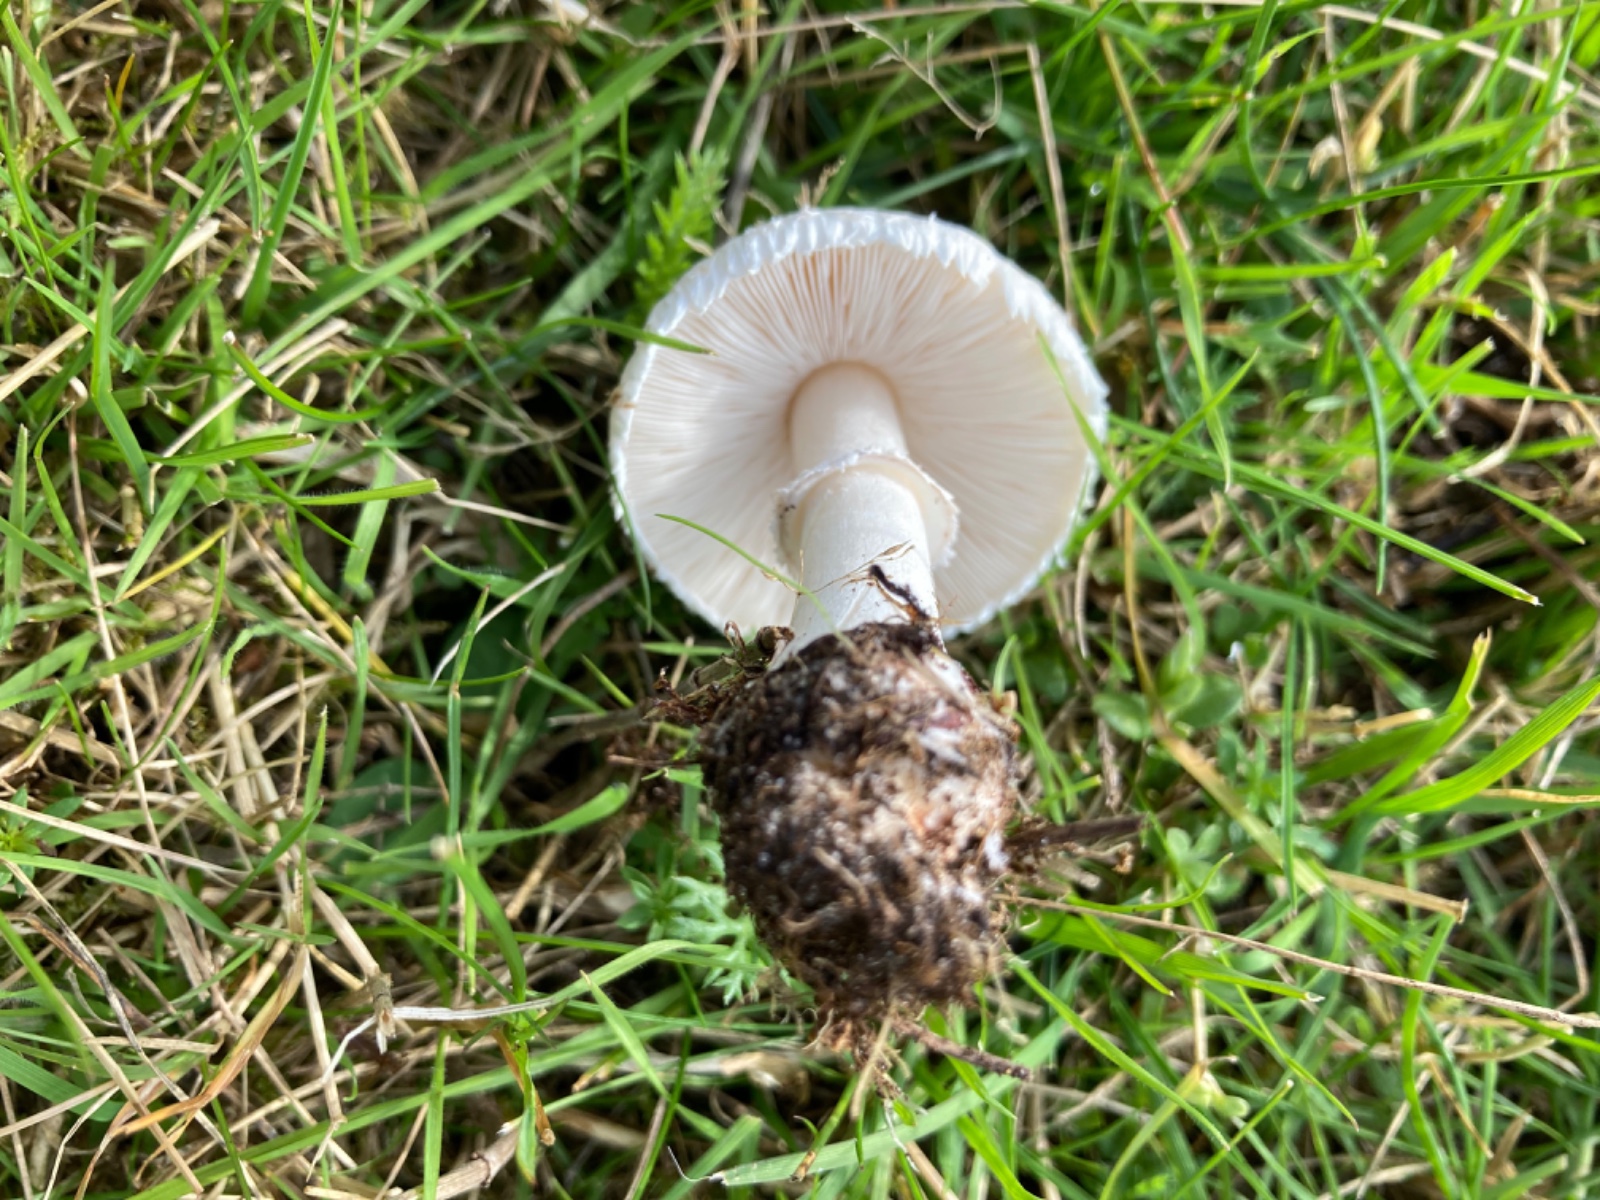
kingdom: Fungi
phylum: Basidiomycota
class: Agaricomycetes
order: Agaricales
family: Agaricaceae
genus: Macrolepiota
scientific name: Macrolepiota excoriata
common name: mark-kæmpeparasolhat
